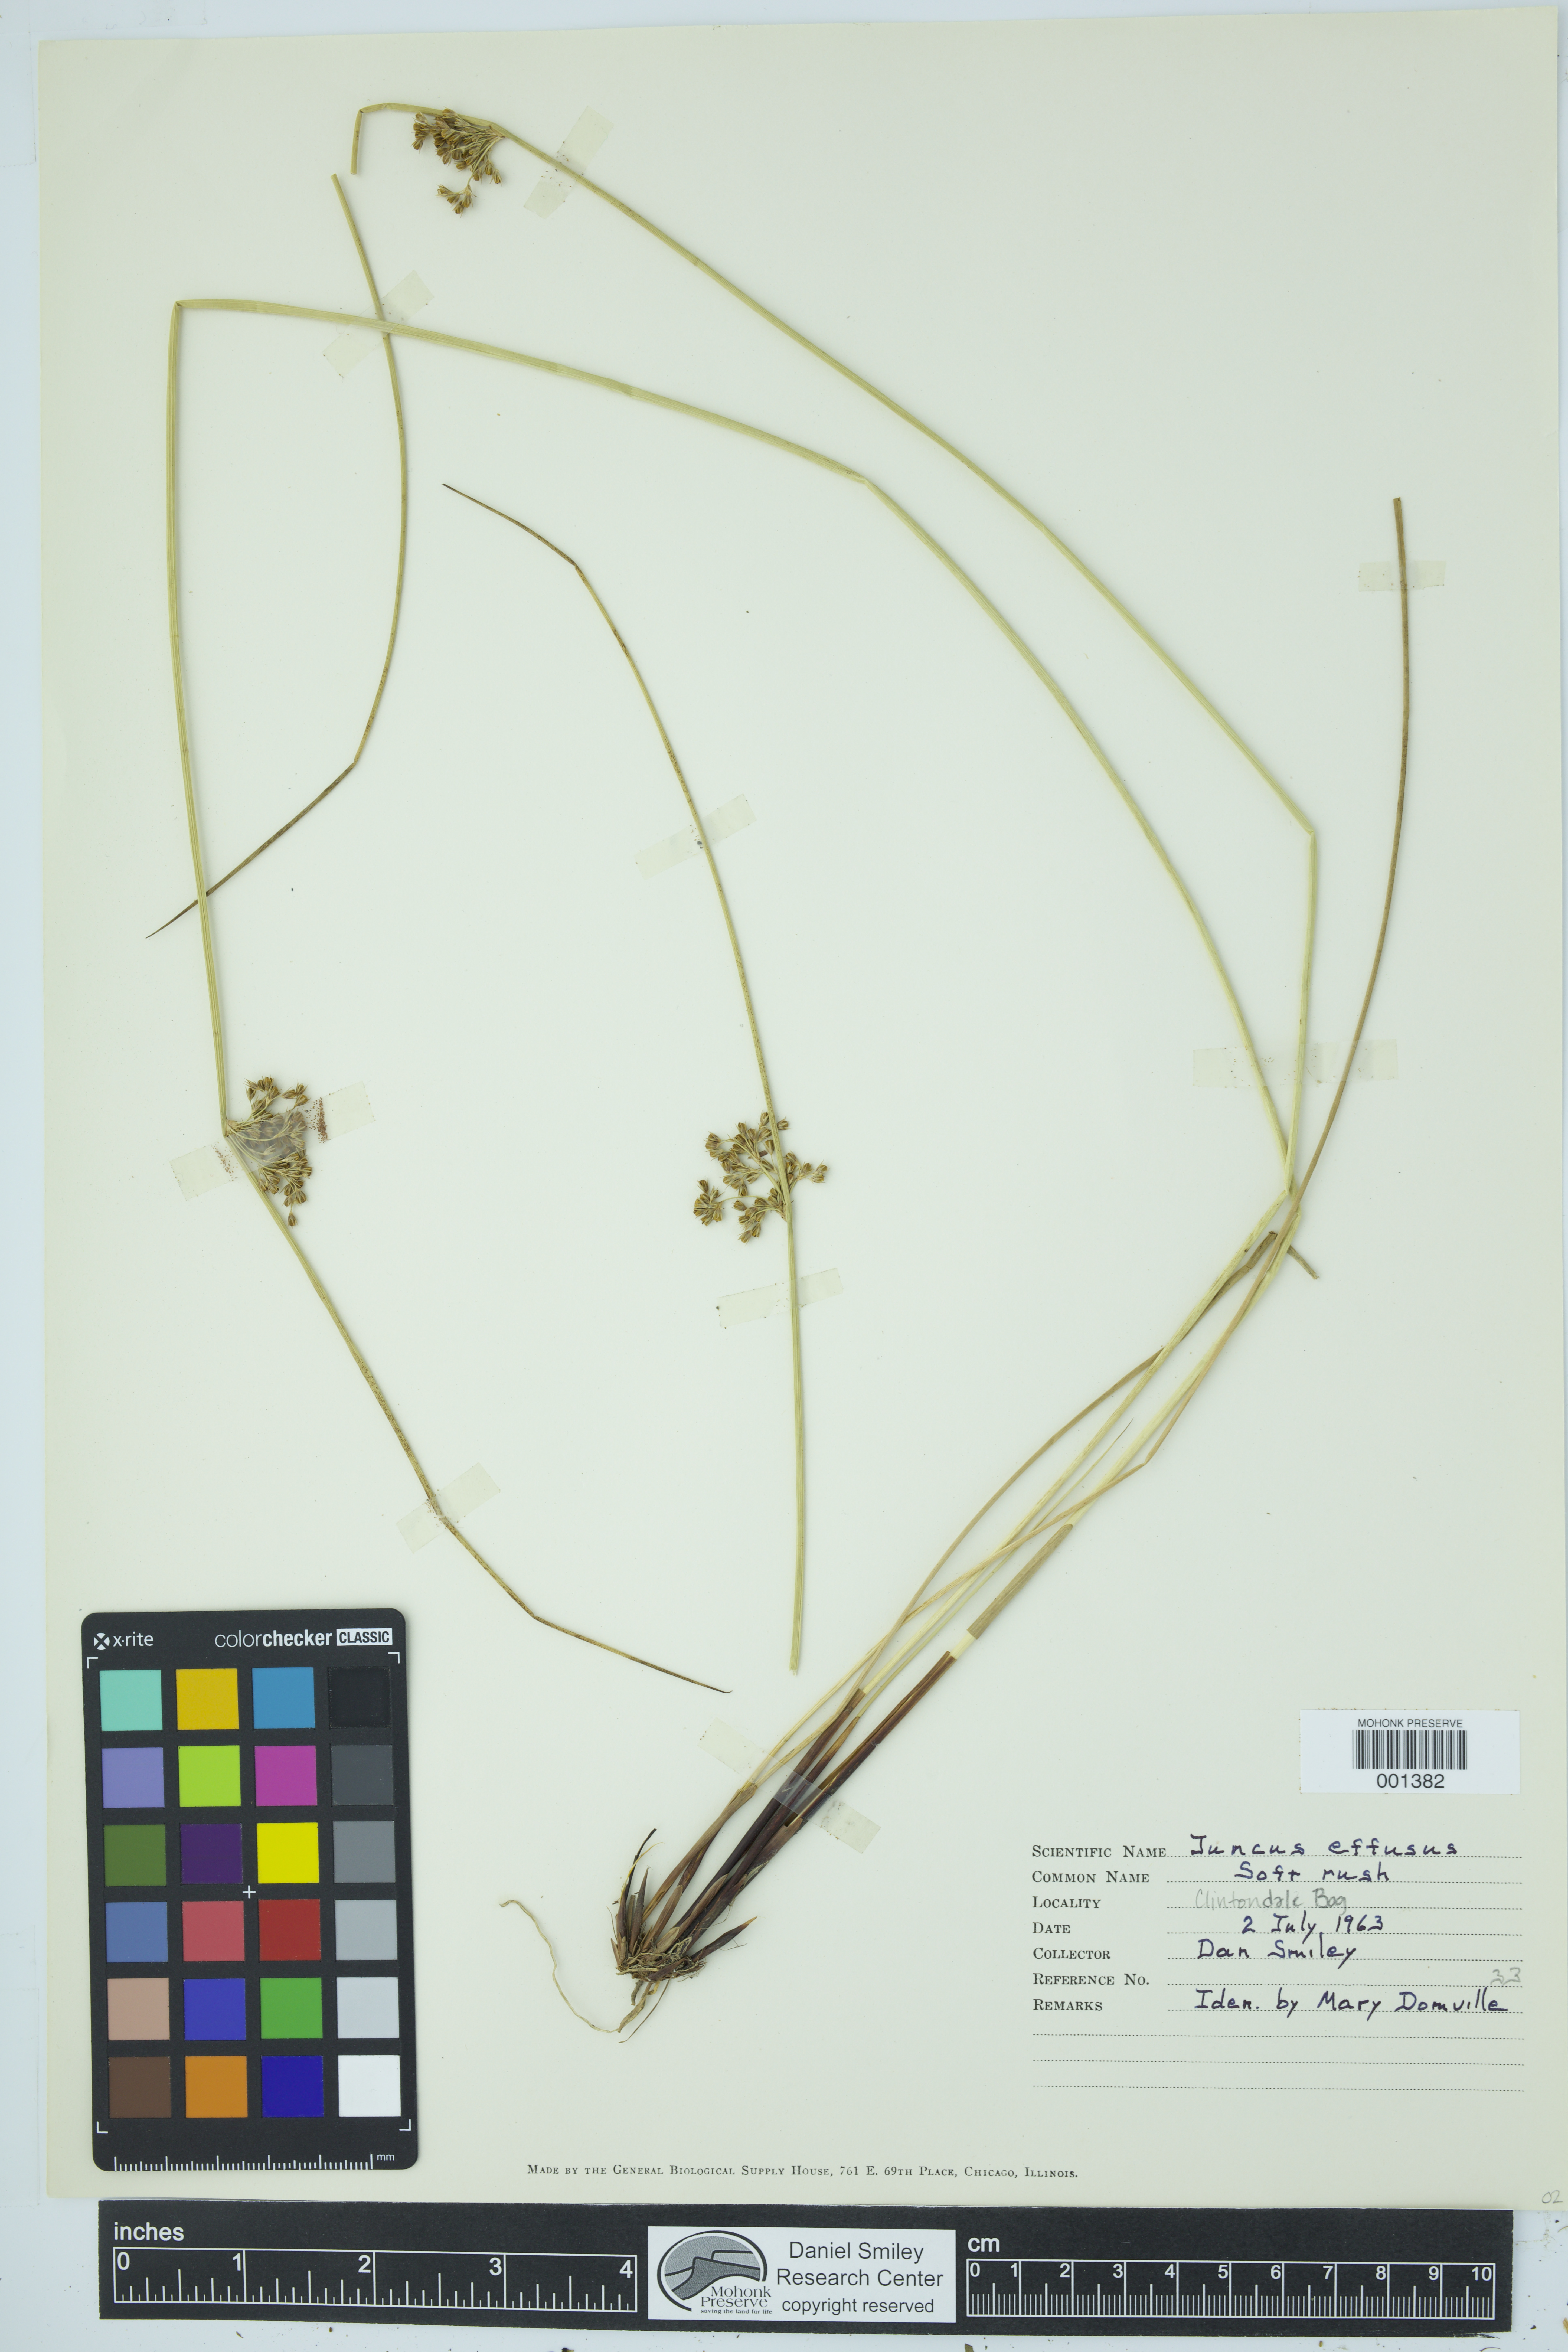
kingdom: Plantae
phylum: Tracheophyta
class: Liliopsida
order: Poales
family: Juncaceae
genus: Juncus
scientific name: Juncus effusus
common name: Soft rush
